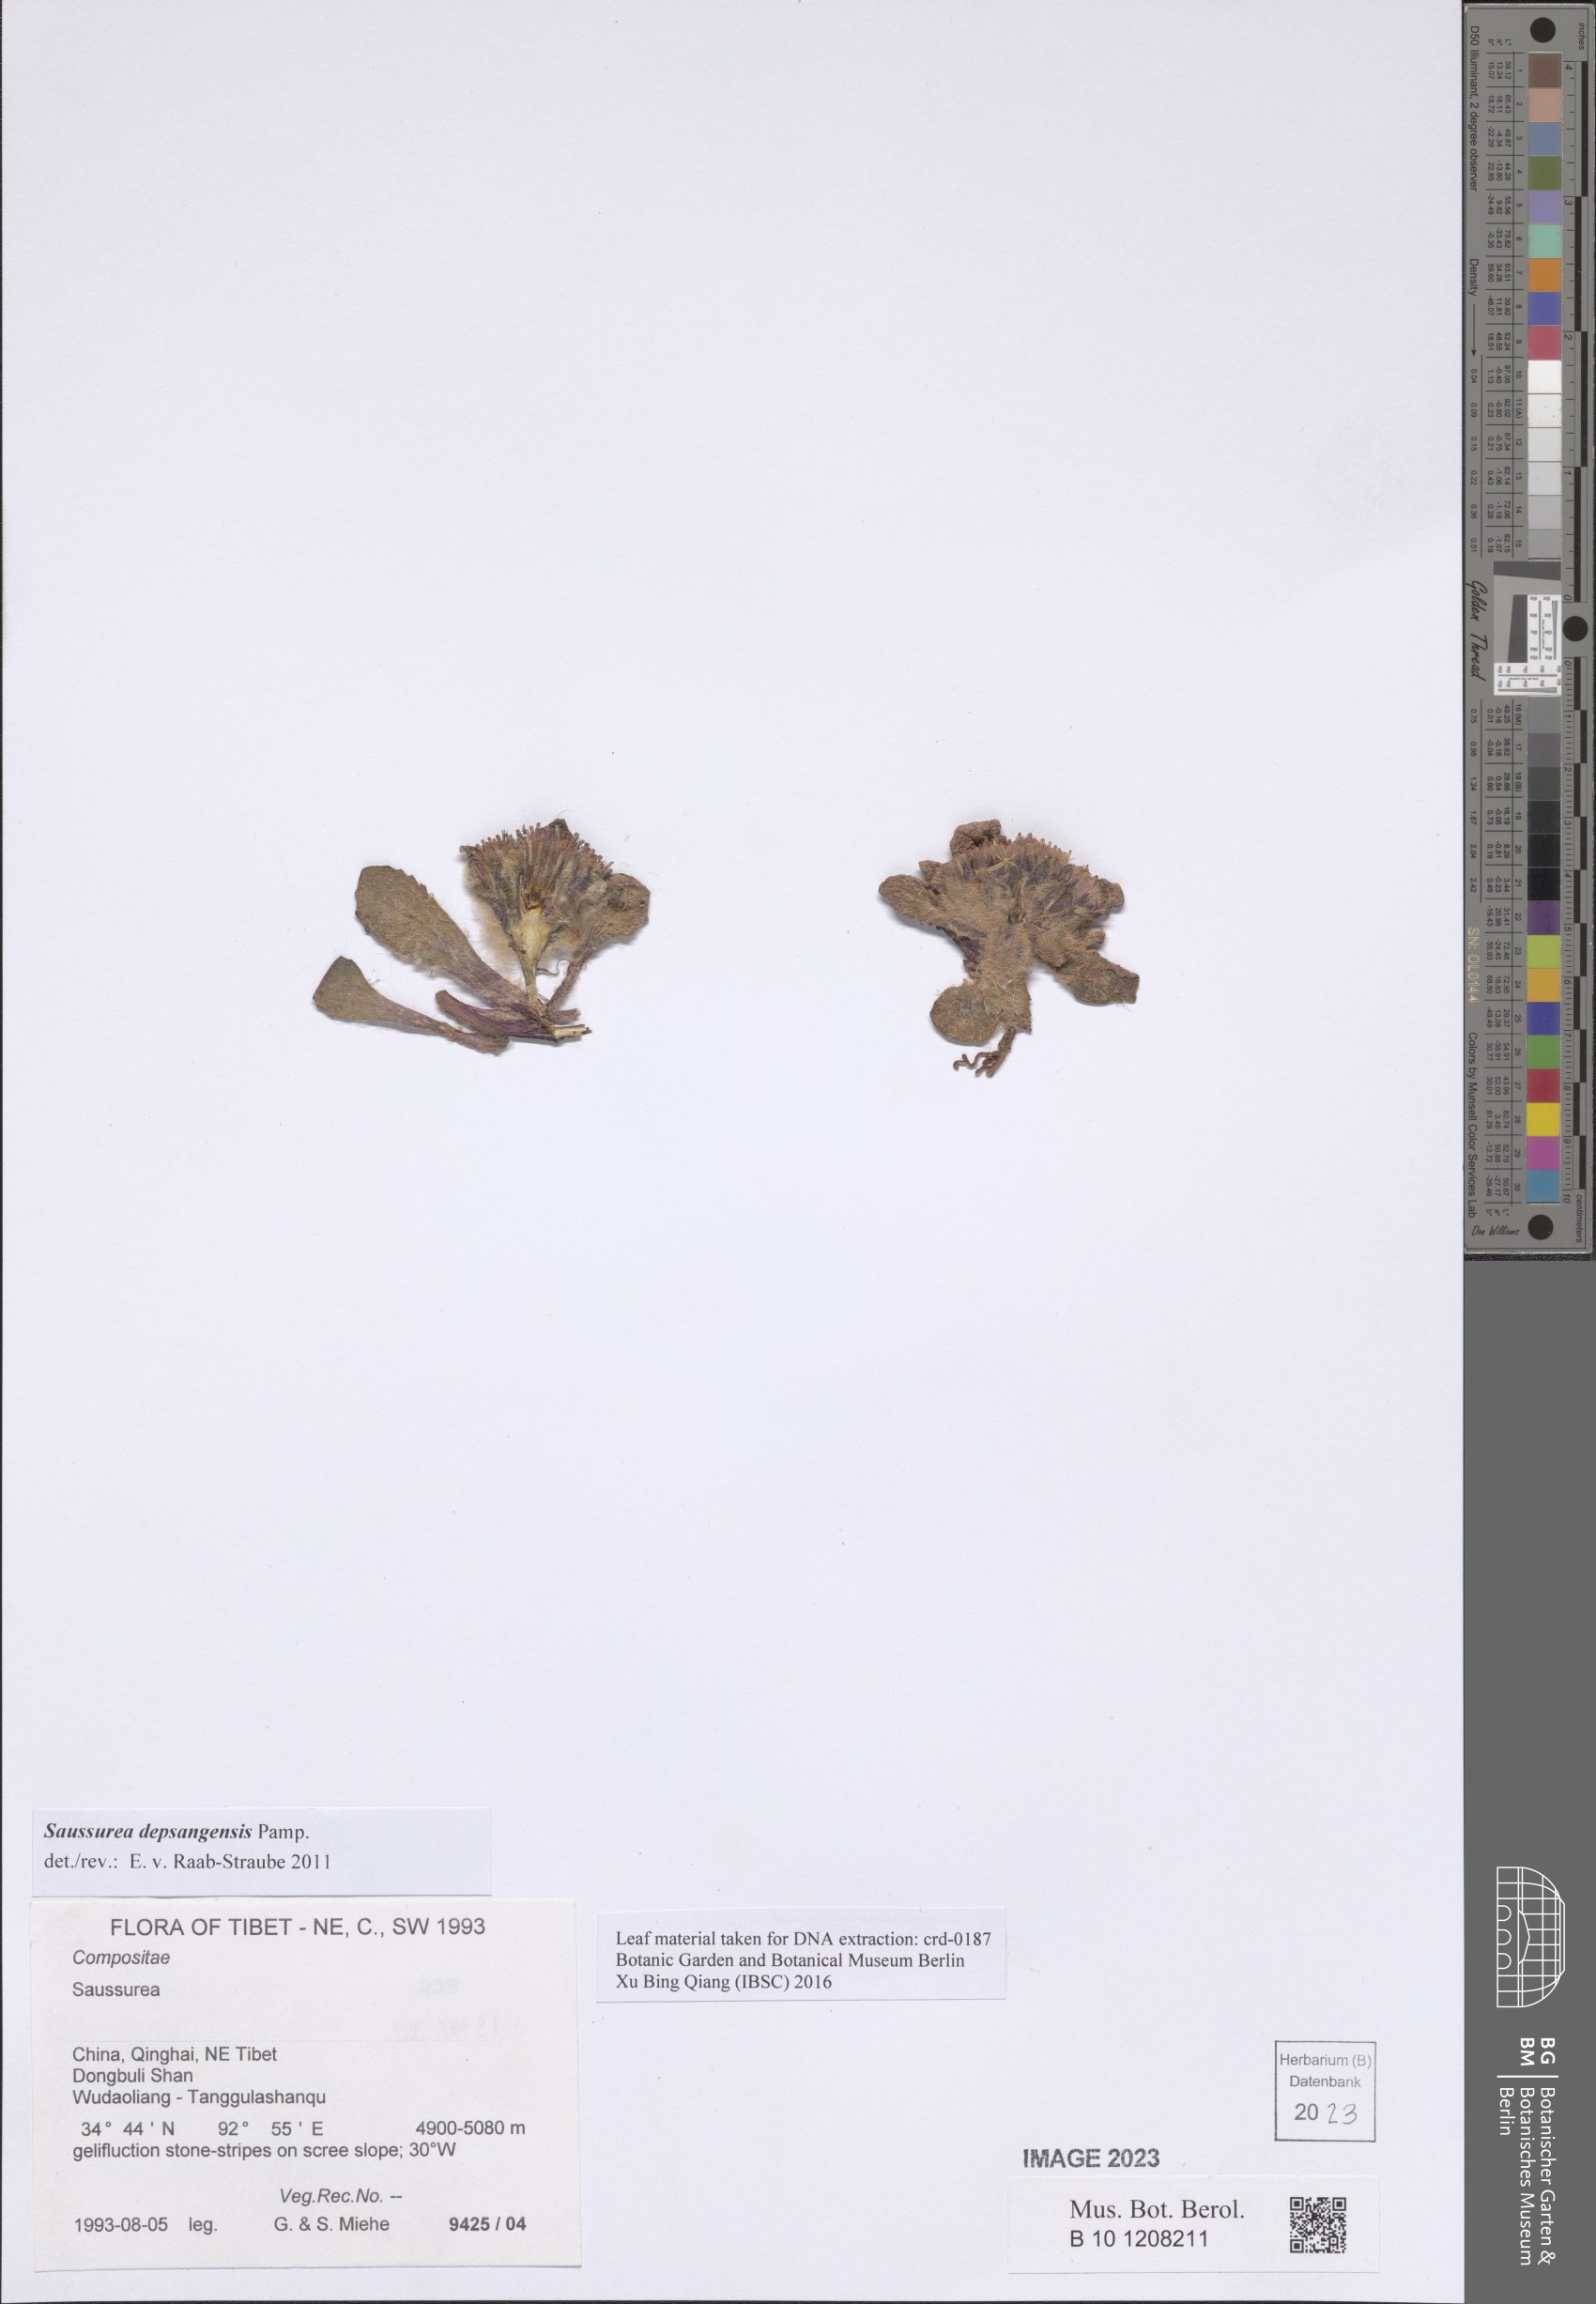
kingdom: Plantae
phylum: Tracheophyta
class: Magnoliopsida
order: Asterales
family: Asteraceae
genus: Saussurea
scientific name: Saussurea depsangensis
